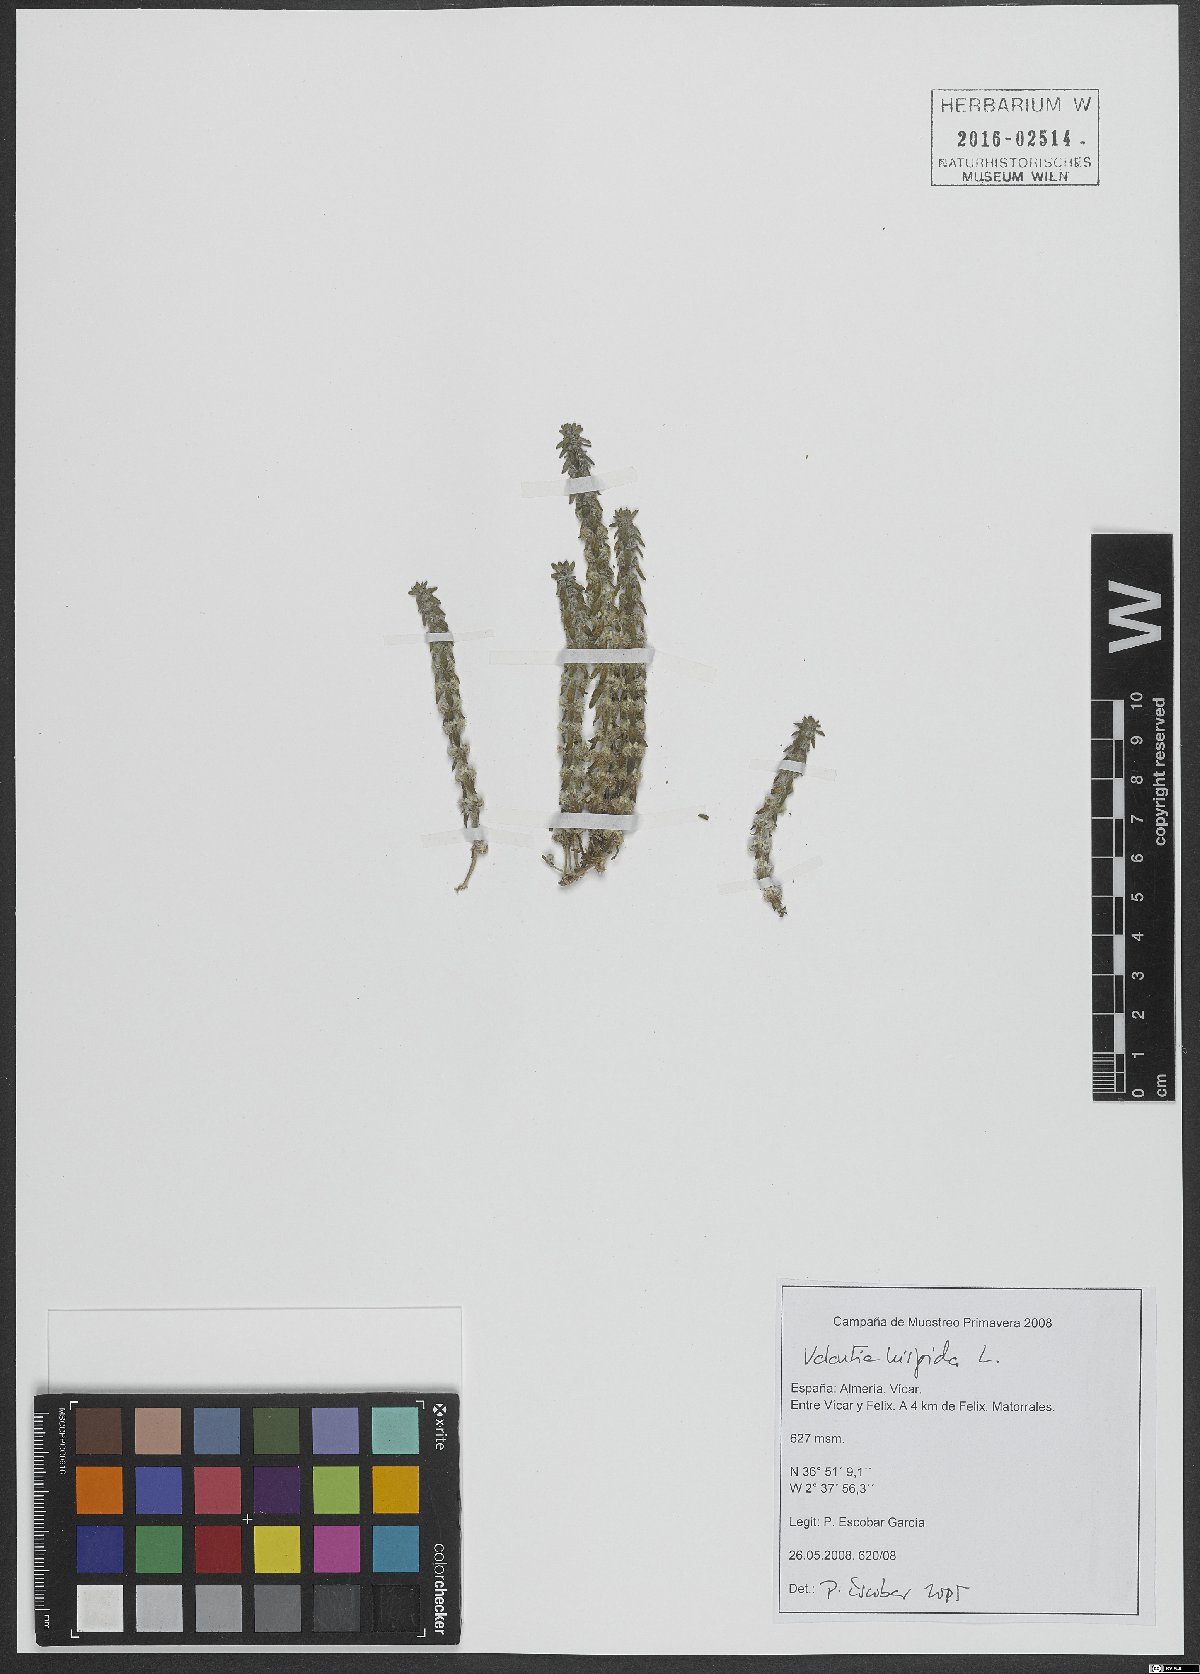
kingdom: Plantae
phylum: Tracheophyta
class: Magnoliopsida
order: Gentianales
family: Rubiaceae
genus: Valantia
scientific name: Valantia hispida
